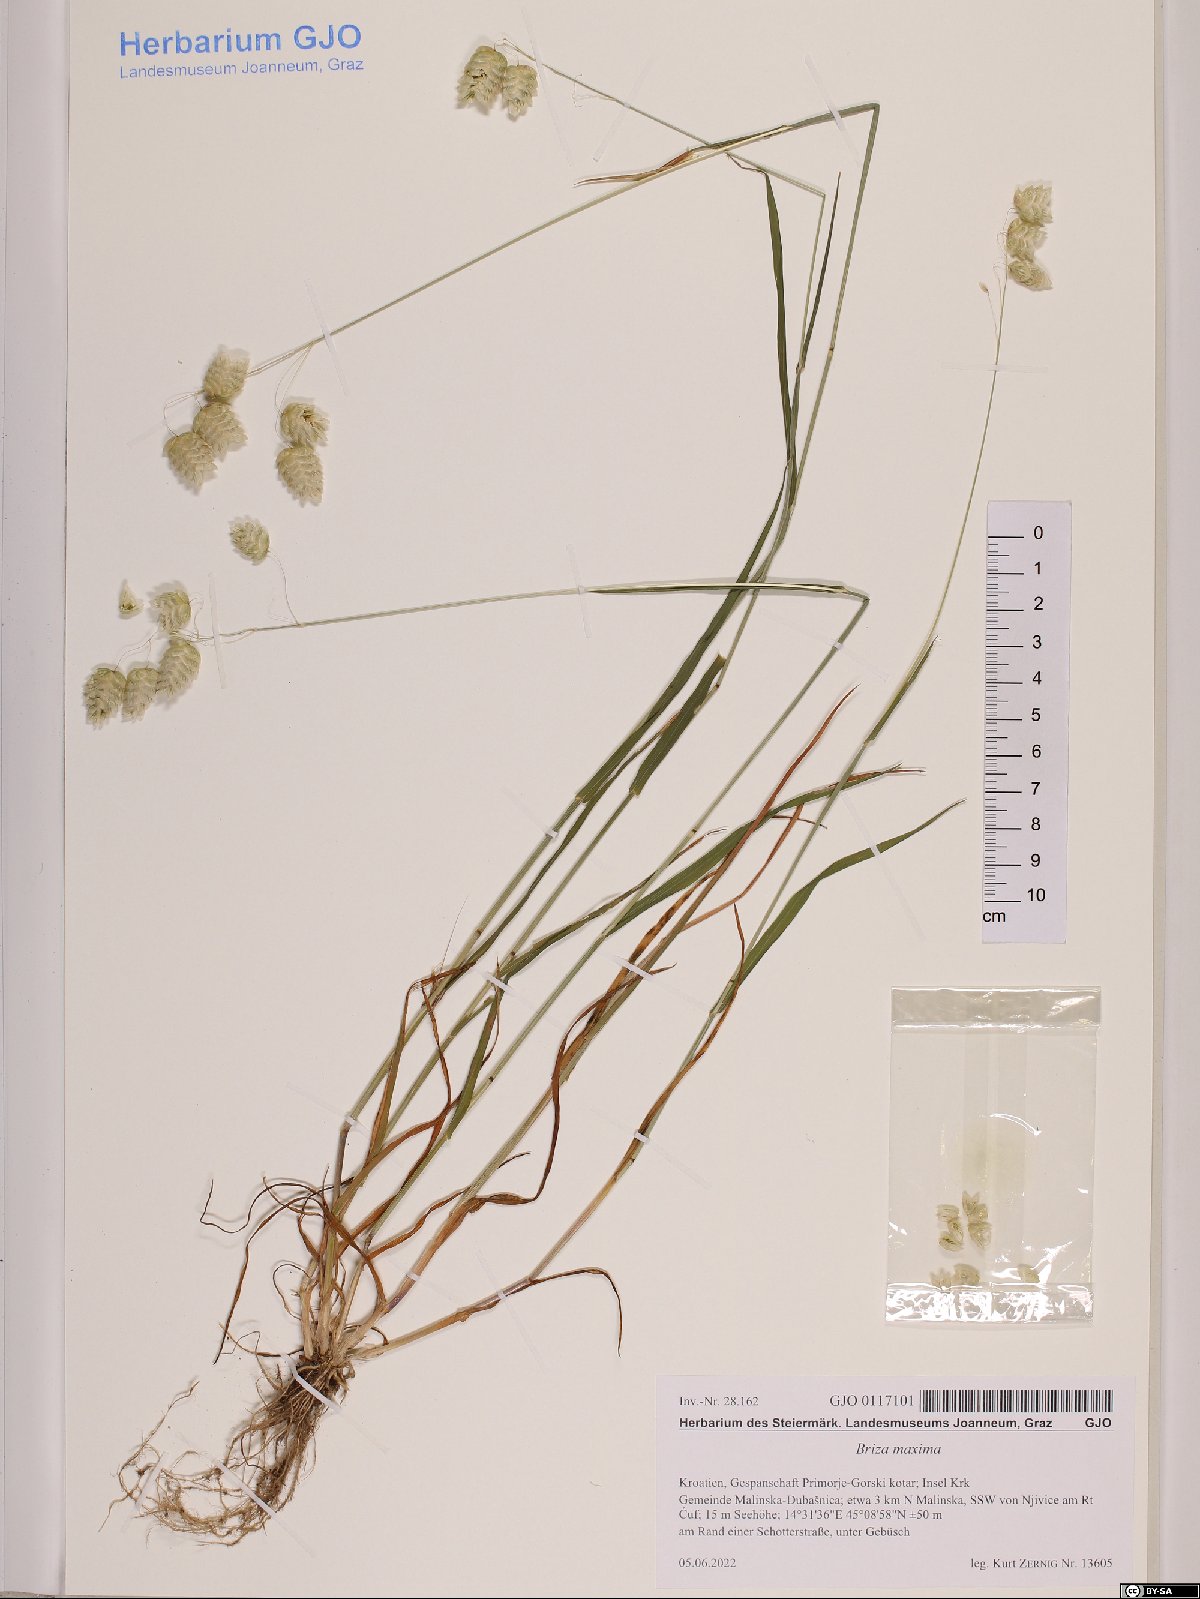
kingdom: Plantae
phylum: Tracheophyta
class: Liliopsida
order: Poales
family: Poaceae
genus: Briza
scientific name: Briza maxima
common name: Big quakinggrass
